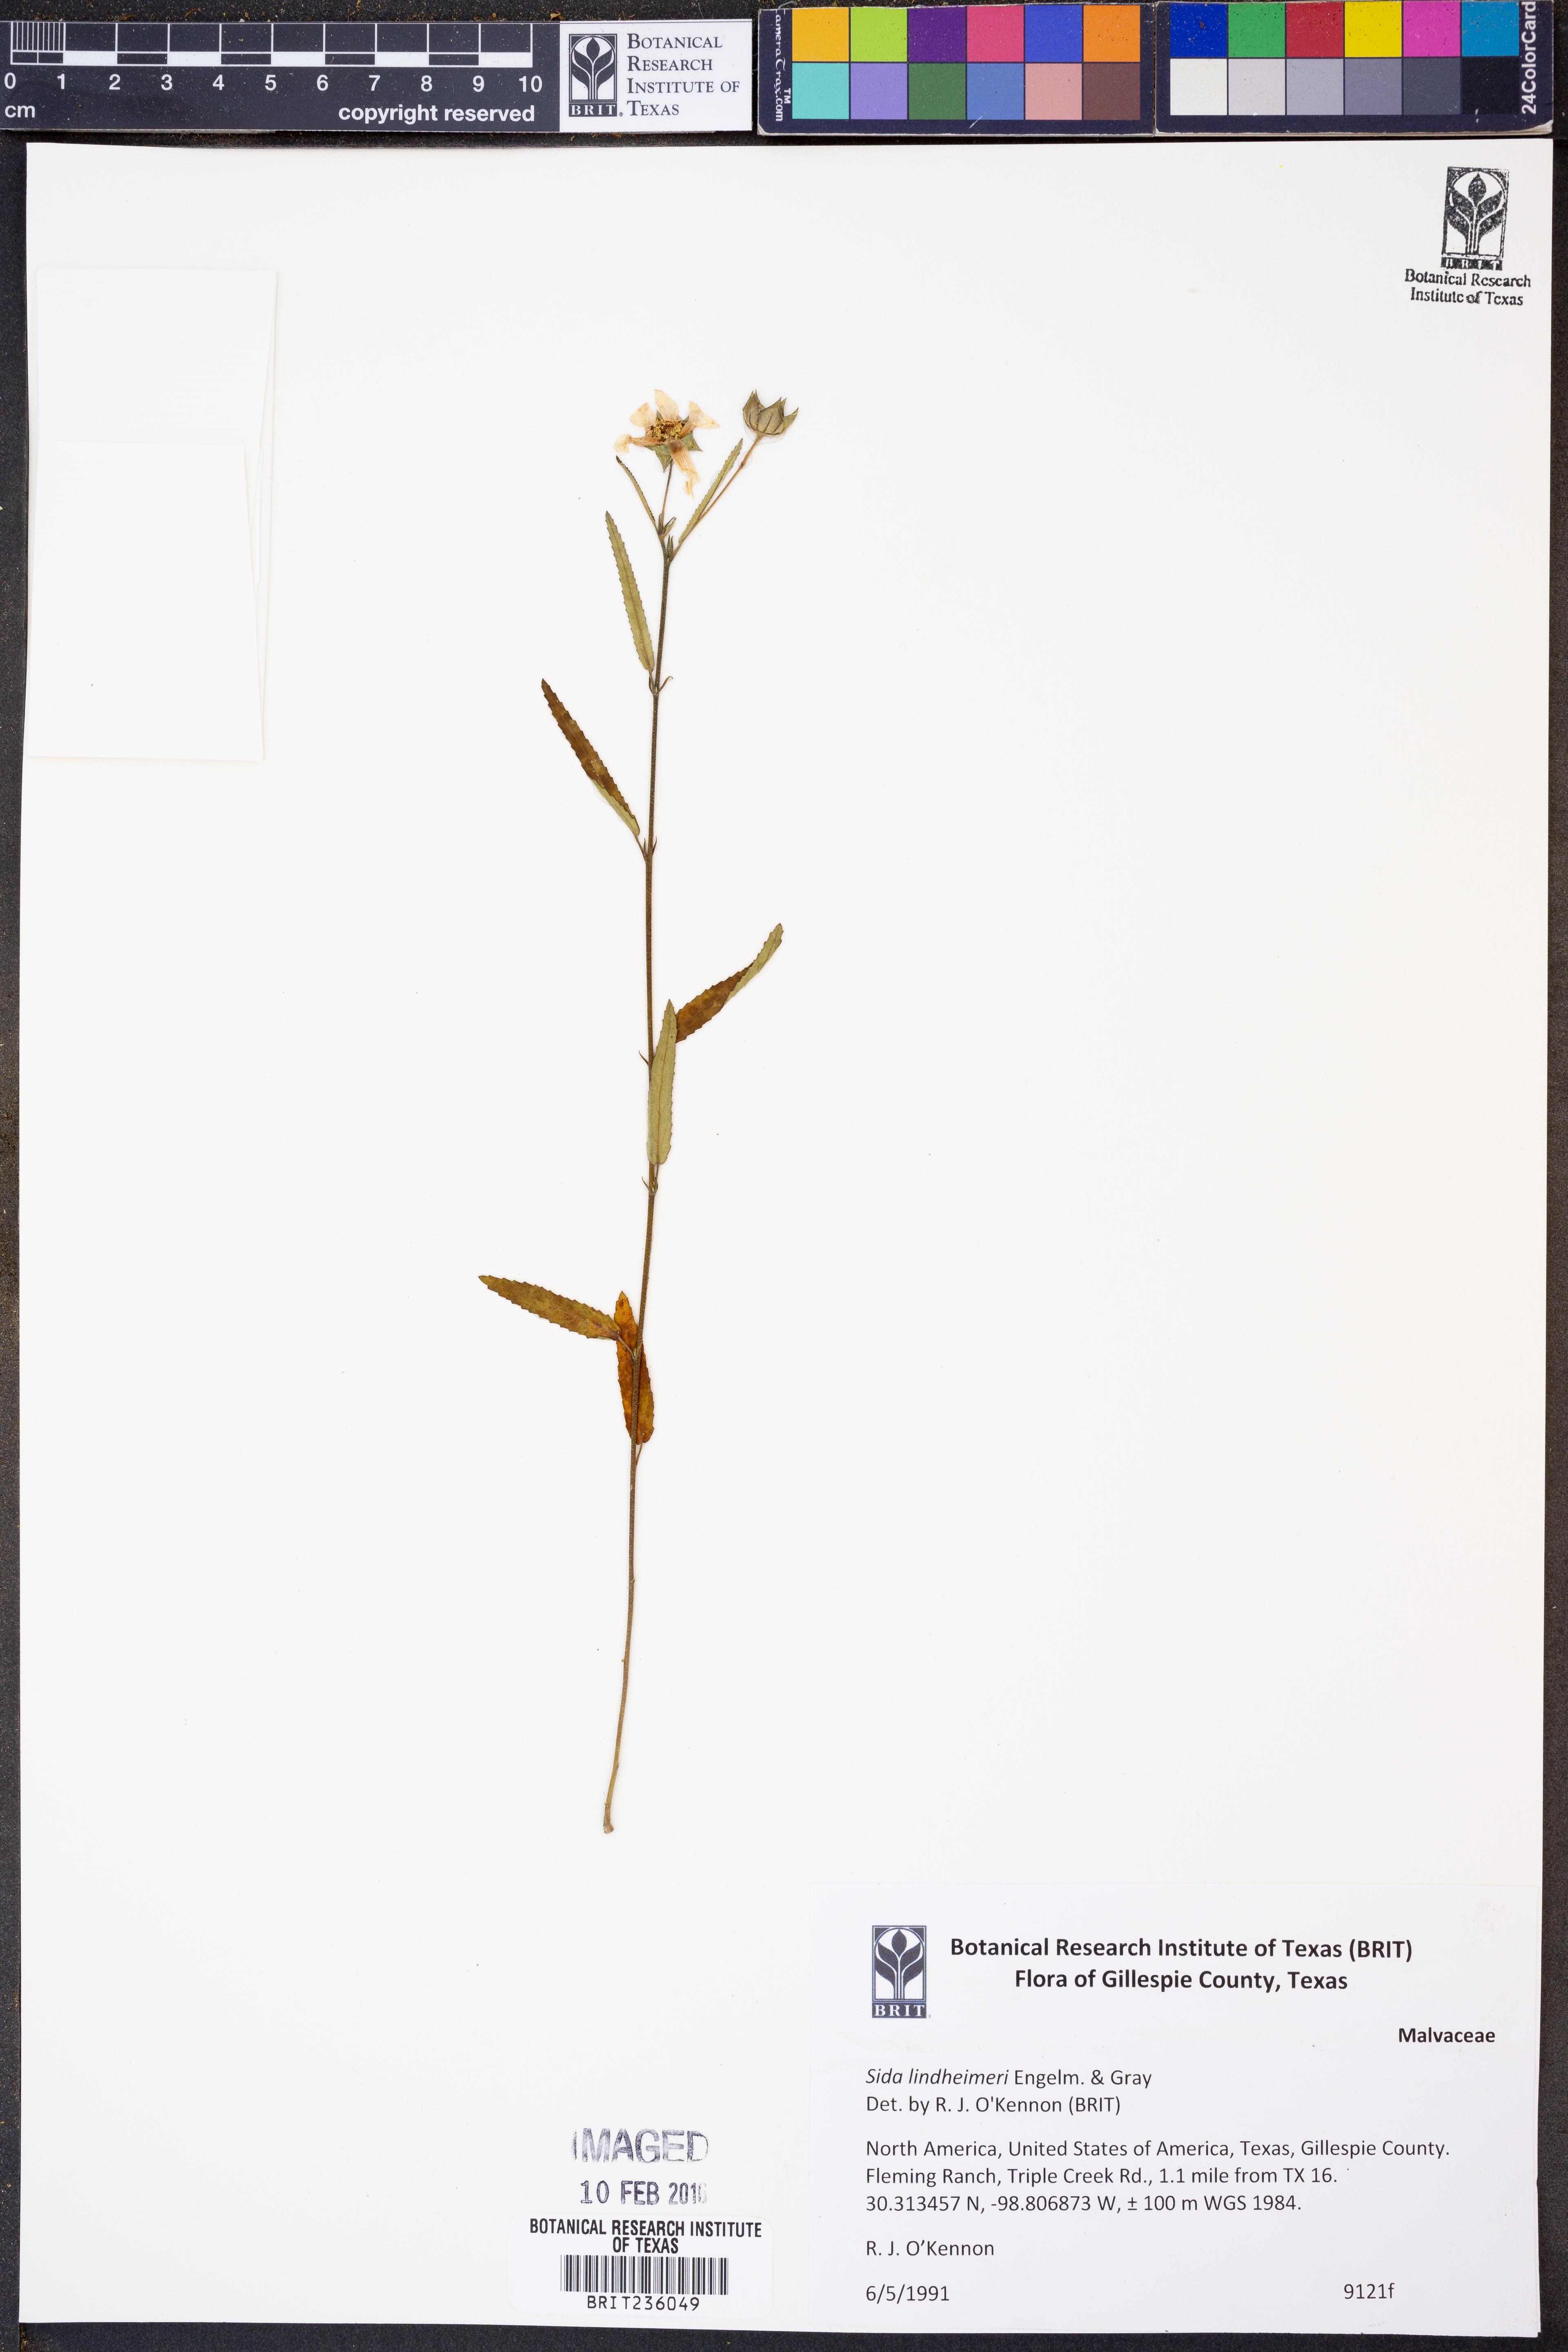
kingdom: Plantae
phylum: Tracheophyta
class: Magnoliopsida
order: Malvales
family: Malvaceae
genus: Sida
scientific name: Sida lindheimeri
